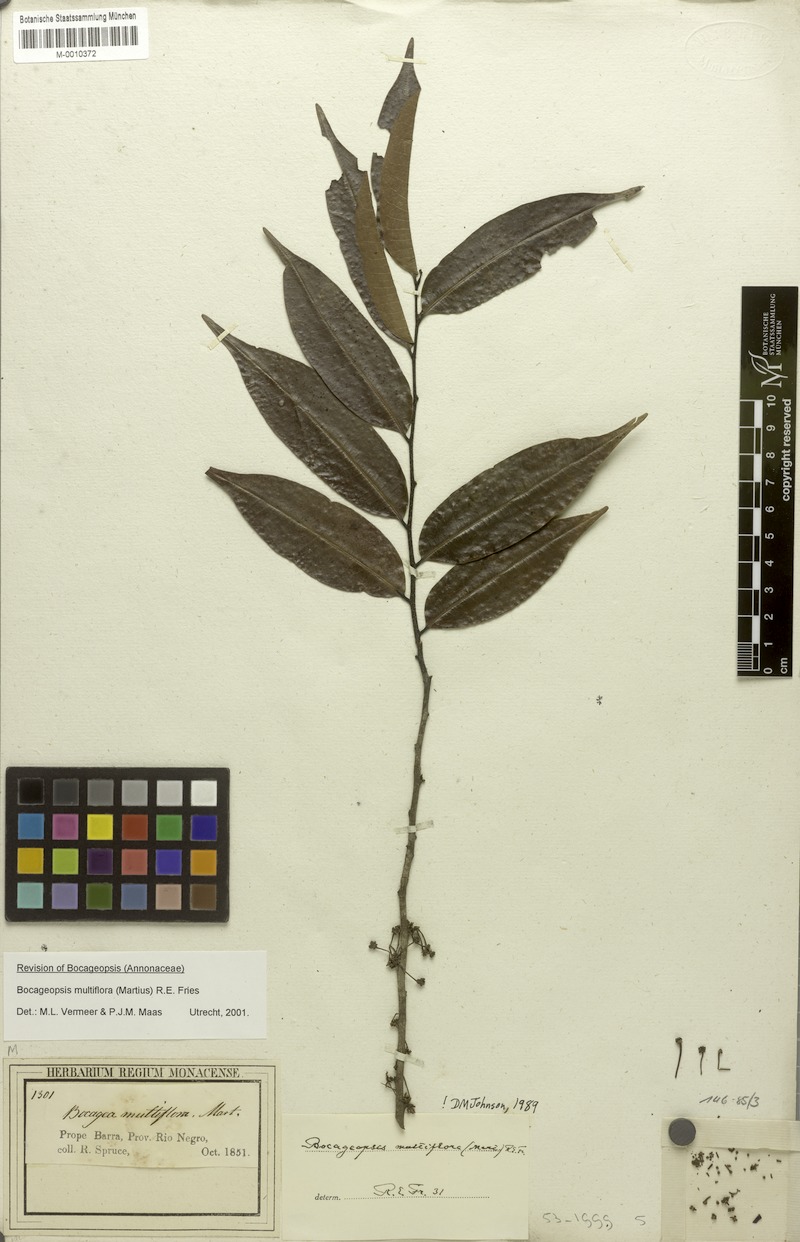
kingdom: Plantae
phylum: Tracheophyta
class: Magnoliopsida
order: Magnoliales
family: Annonaceae
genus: Bocageopsis
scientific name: Bocageopsis multiflora
